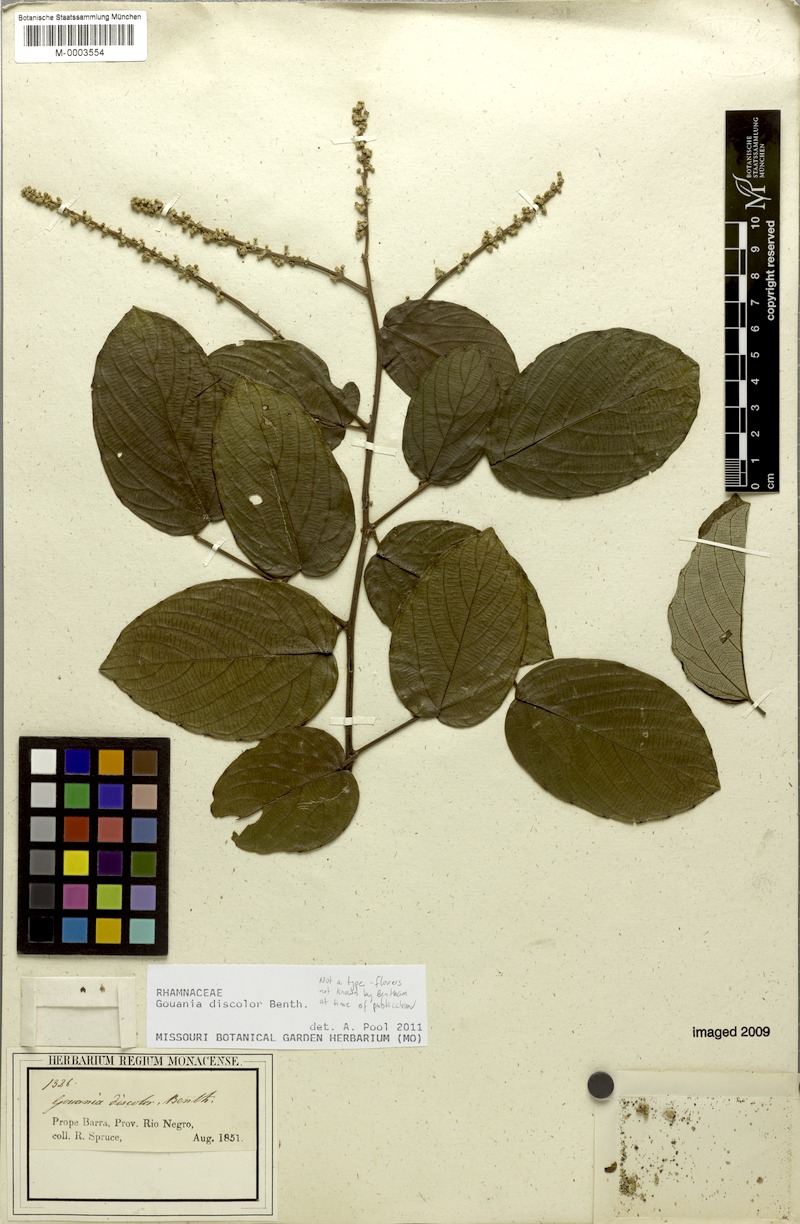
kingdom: Plantae
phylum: Tracheophyta
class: Magnoliopsida
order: Rosales
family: Rhamnaceae
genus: Gouania
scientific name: Gouania discolor
